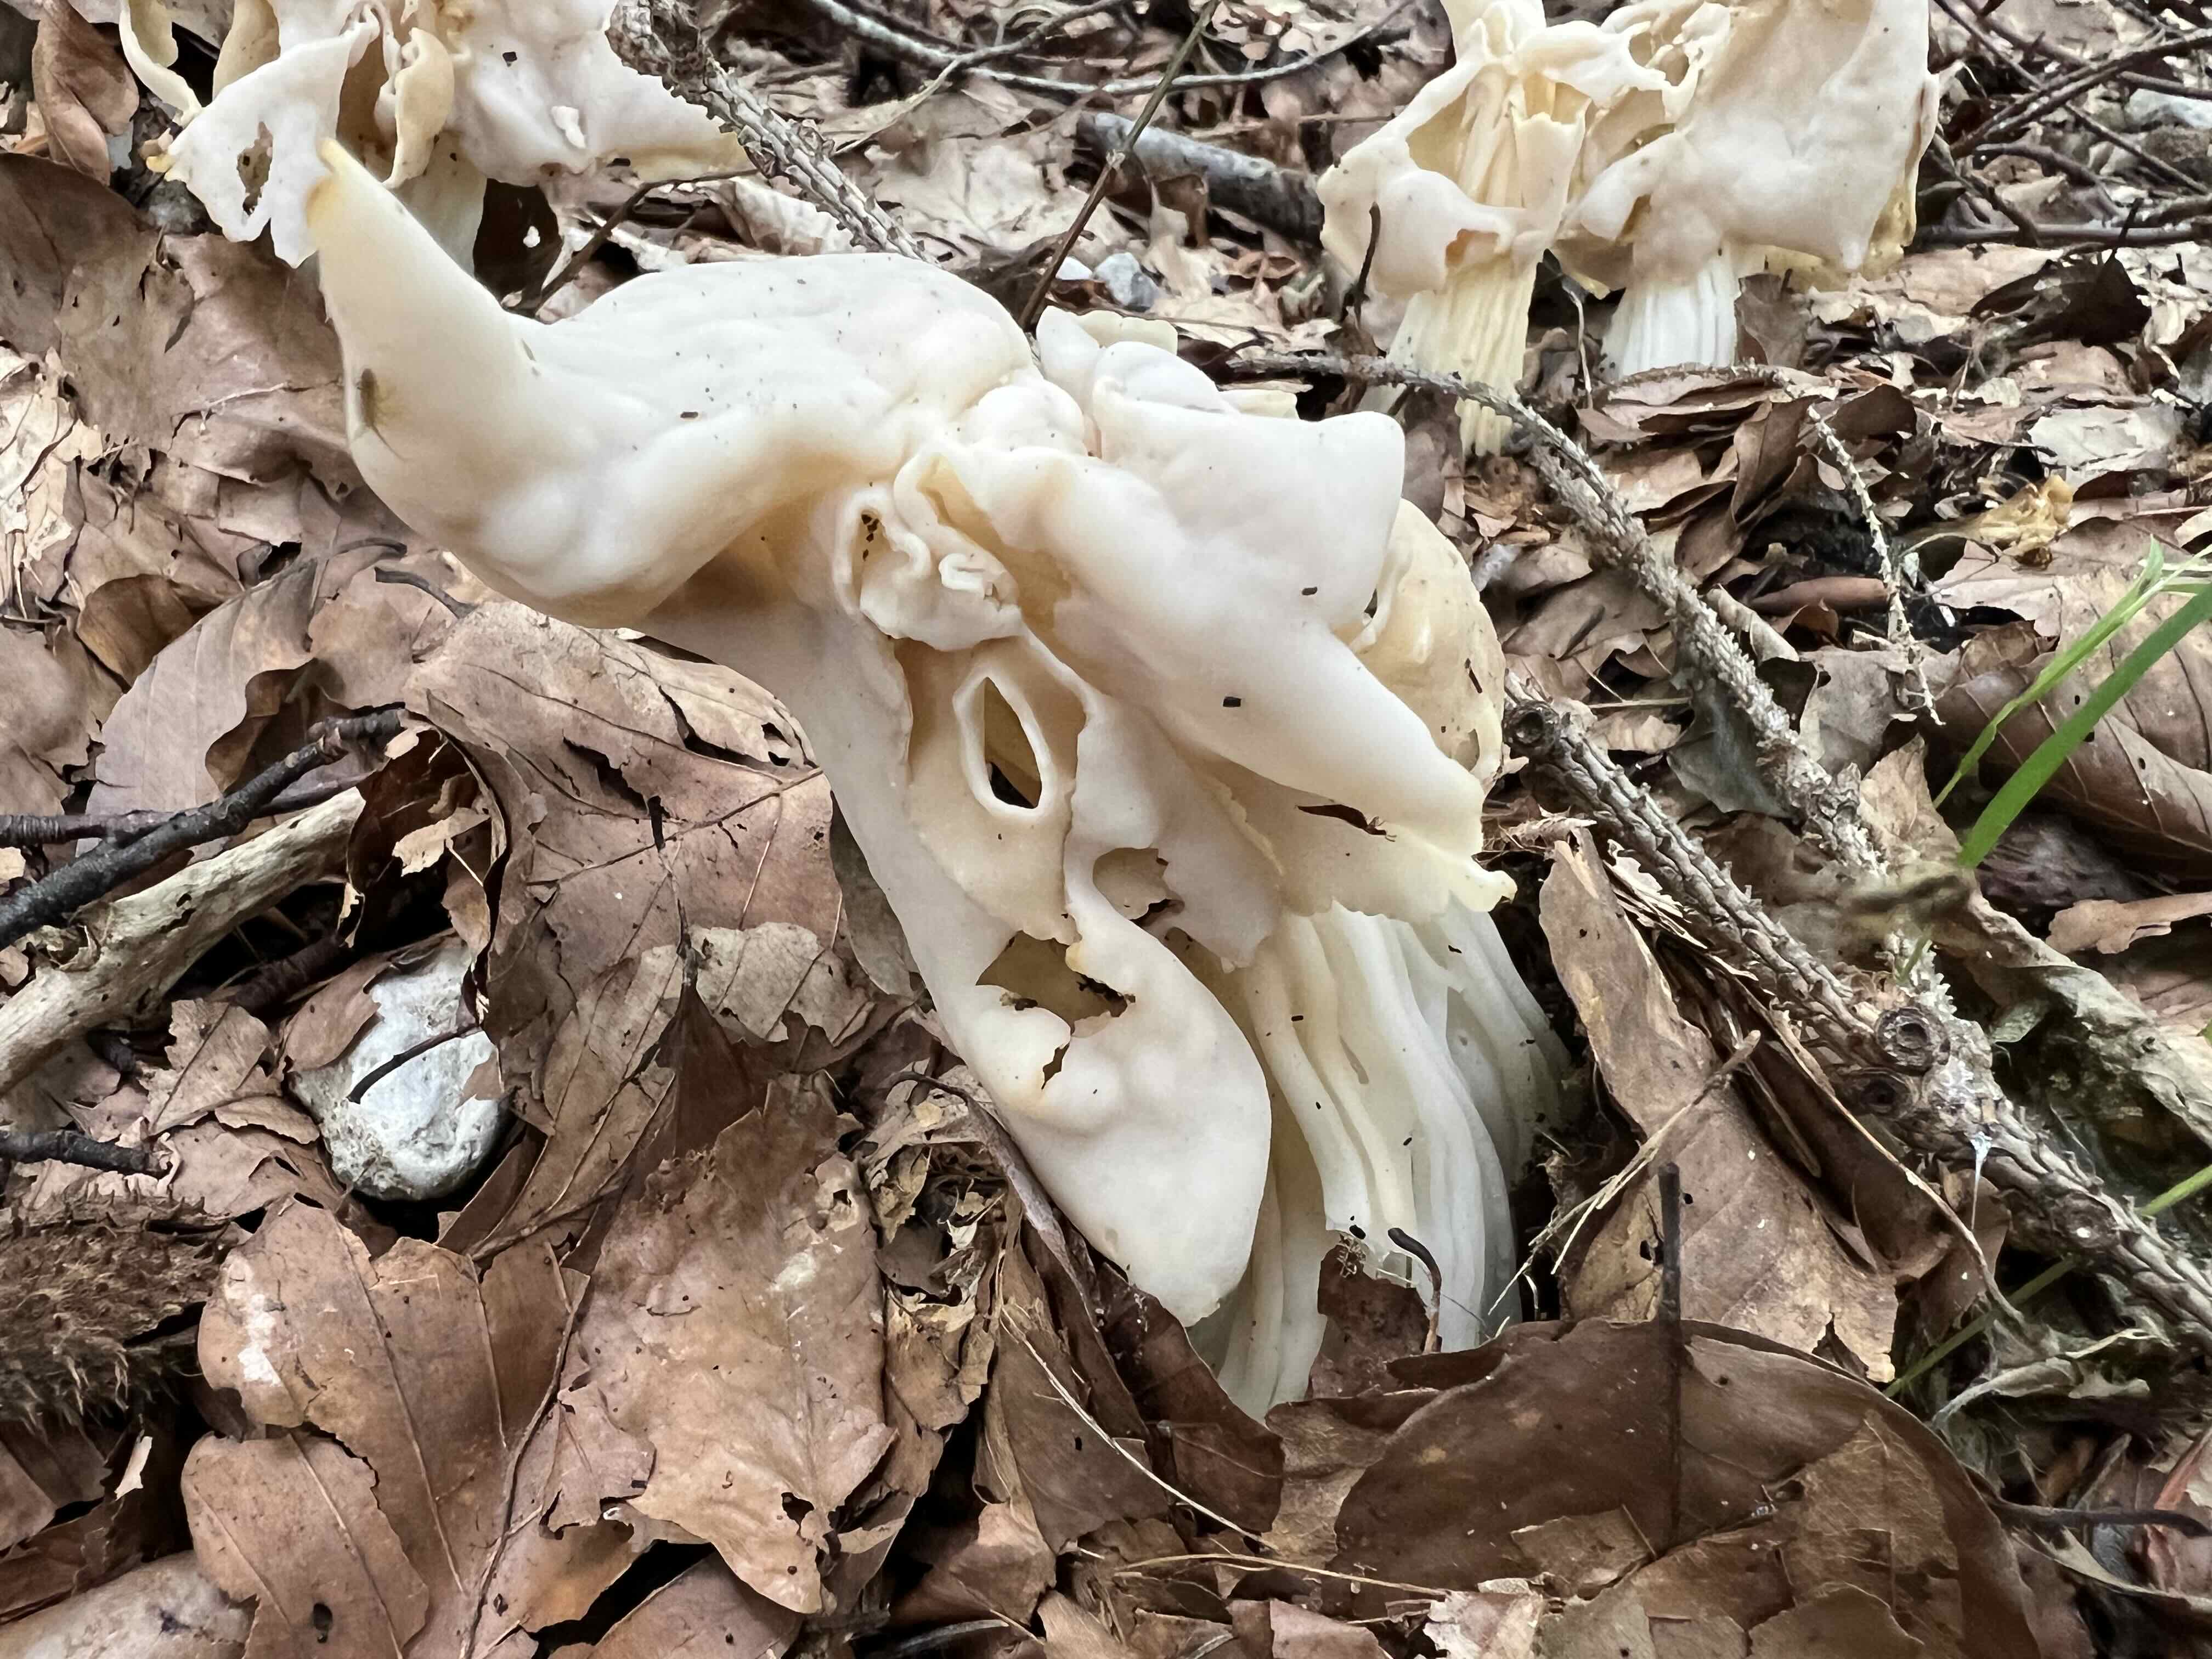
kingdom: Fungi
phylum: Ascomycota
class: Pezizomycetes
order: Pezizales
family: Helvellaceae
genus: Helvella
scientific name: Helvella crispa
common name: kruset foldhat
